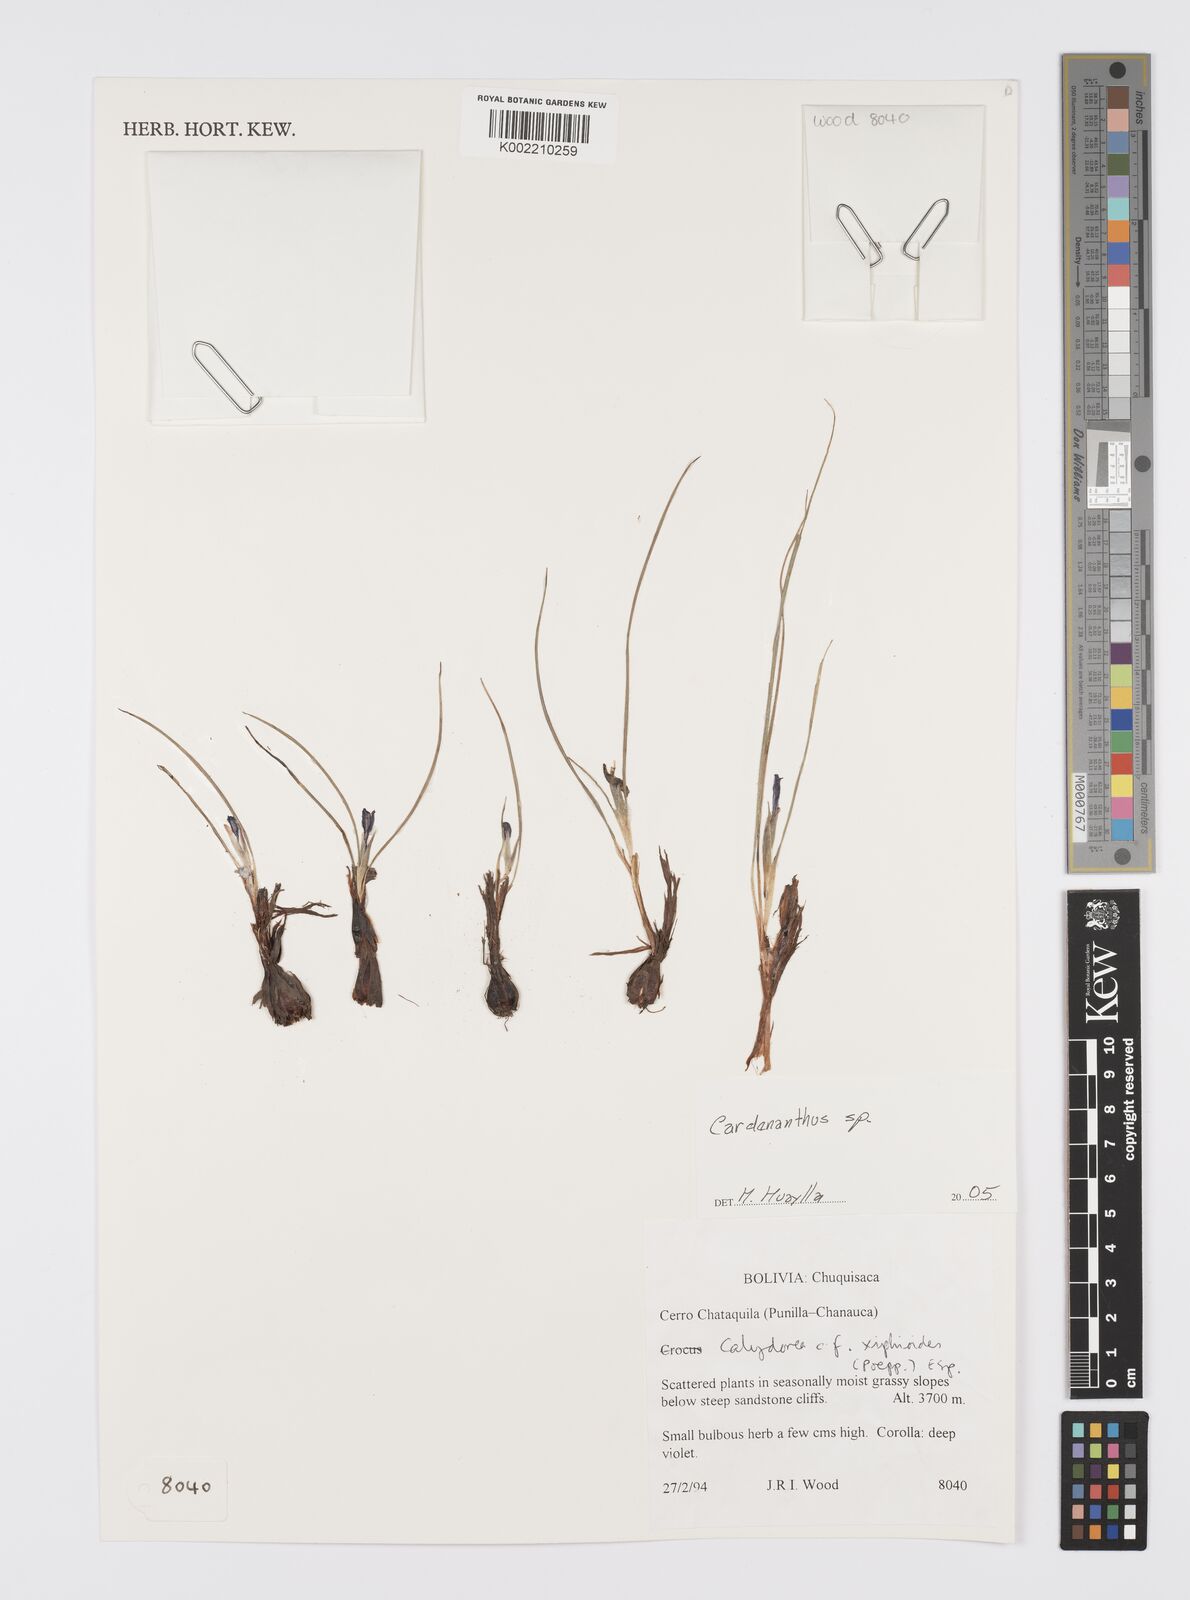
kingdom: Plantae
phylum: Tracheophyta
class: Liliopsida
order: Asparagales
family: Iridaceae
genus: Mastigostyla
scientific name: Mastigostyla
